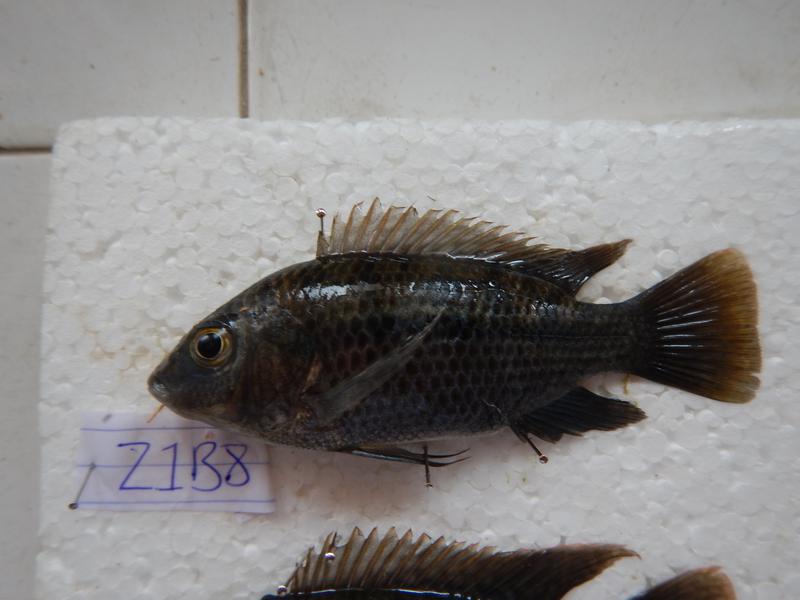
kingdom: Animalia
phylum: Chordata
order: Perciformes
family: Cichlidae
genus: Oreochromis
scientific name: Oreochromis urolepis
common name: Wami tilapia
